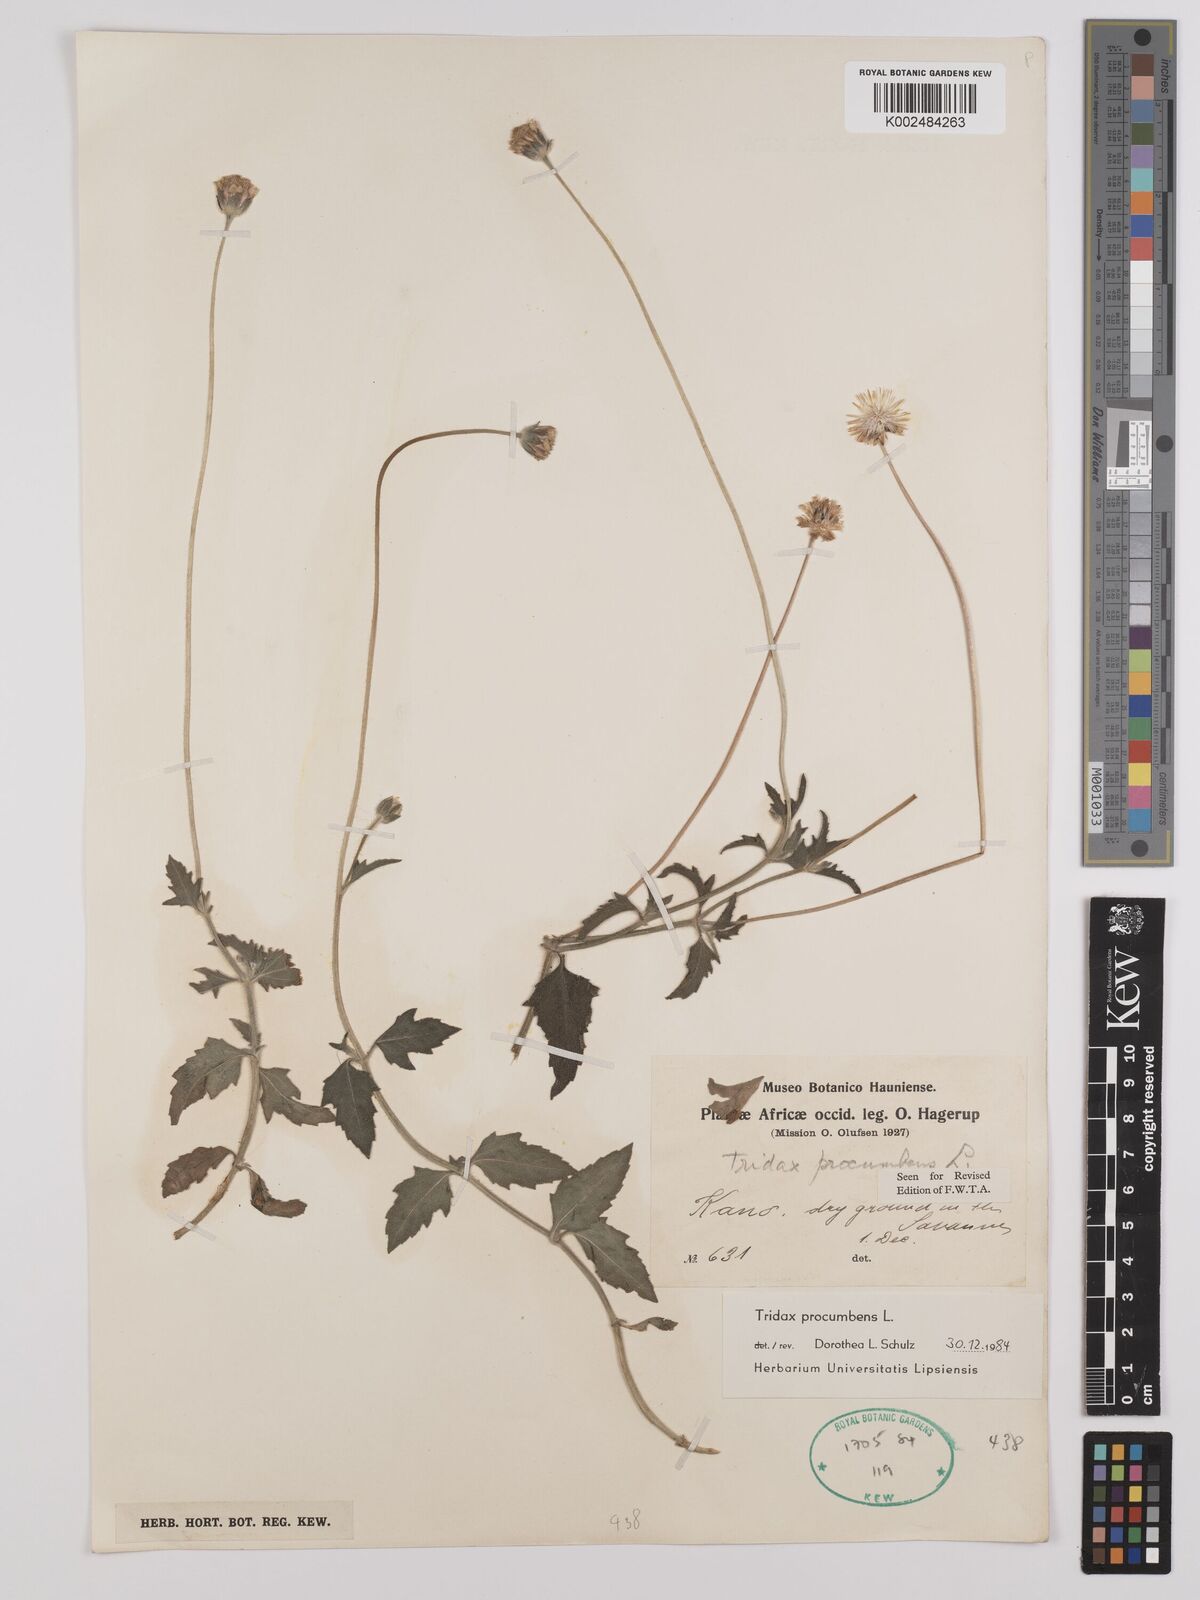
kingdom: Plantae
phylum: Tracheophyta
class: Magnoliopsida
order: Asterales
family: Asteraceae
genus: Tridax
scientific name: Tridax procumbens
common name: Coatbuttons
